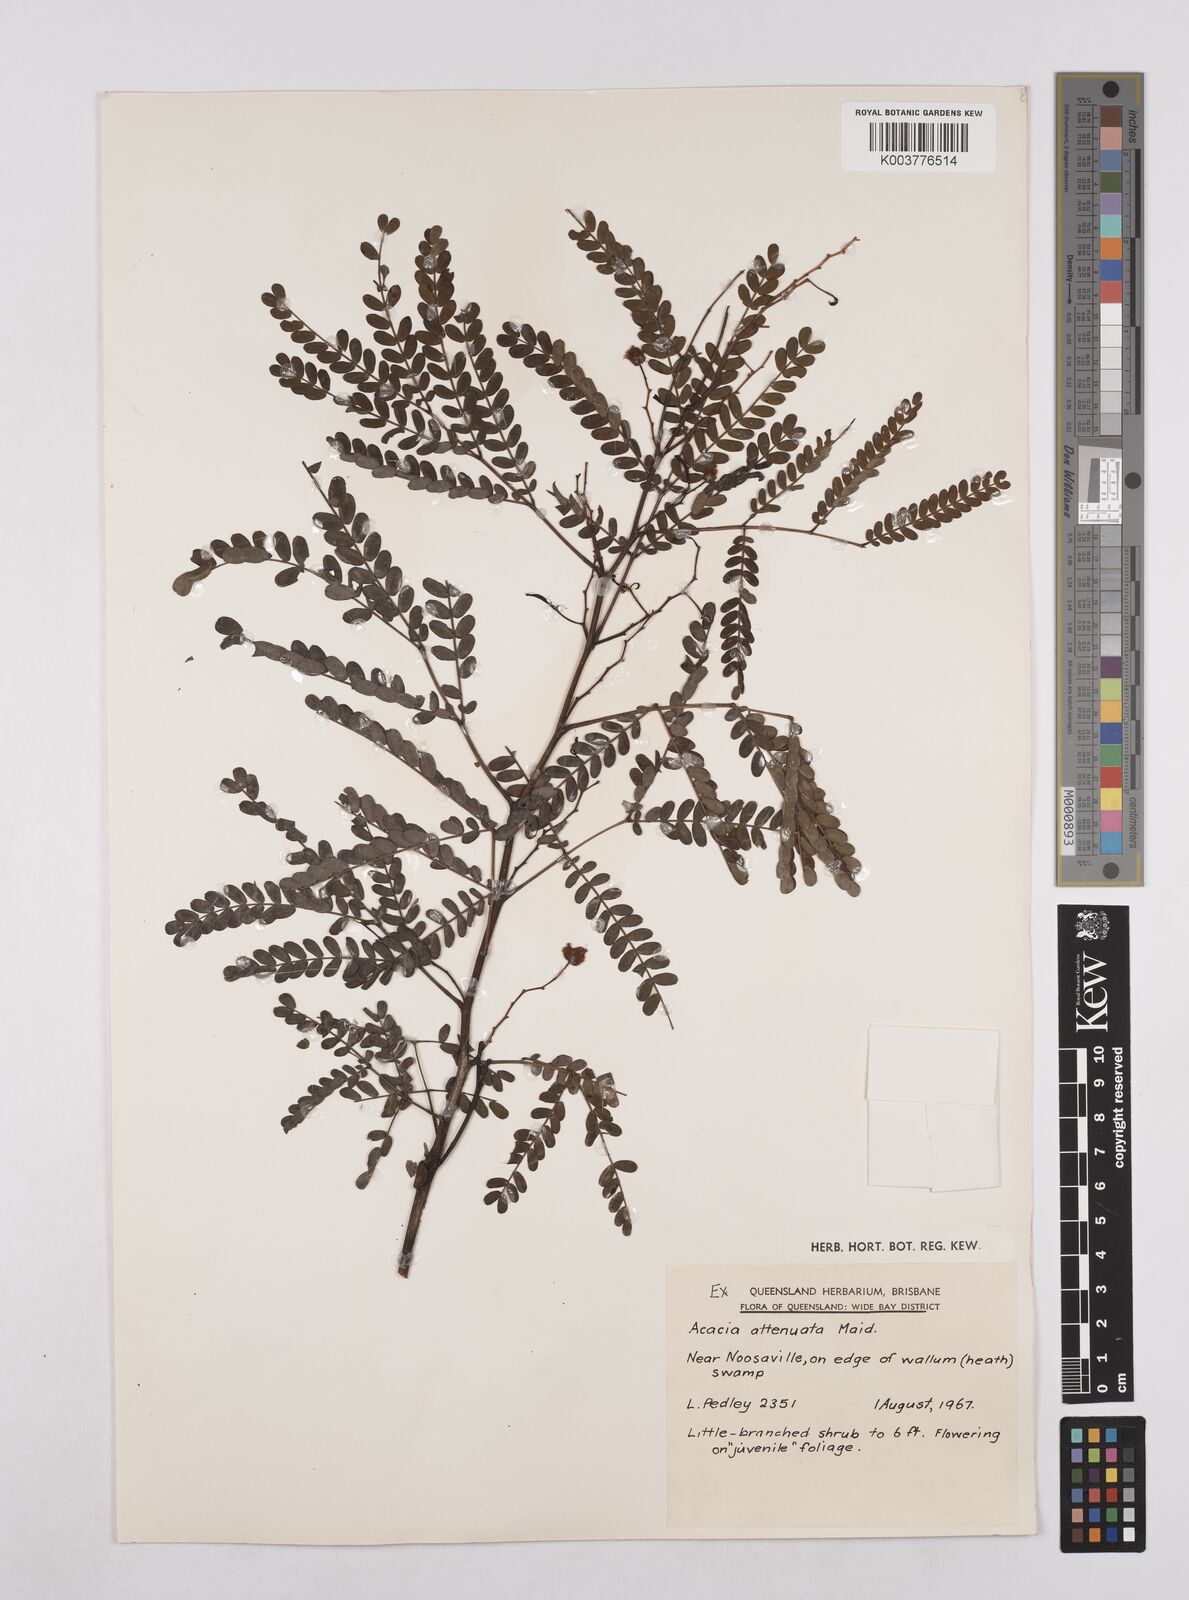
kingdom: Plantae
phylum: Tracheophyta
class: Magnoliopsida
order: Fabales
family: Fabaceae
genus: Acacia
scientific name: Acacia attenuata
